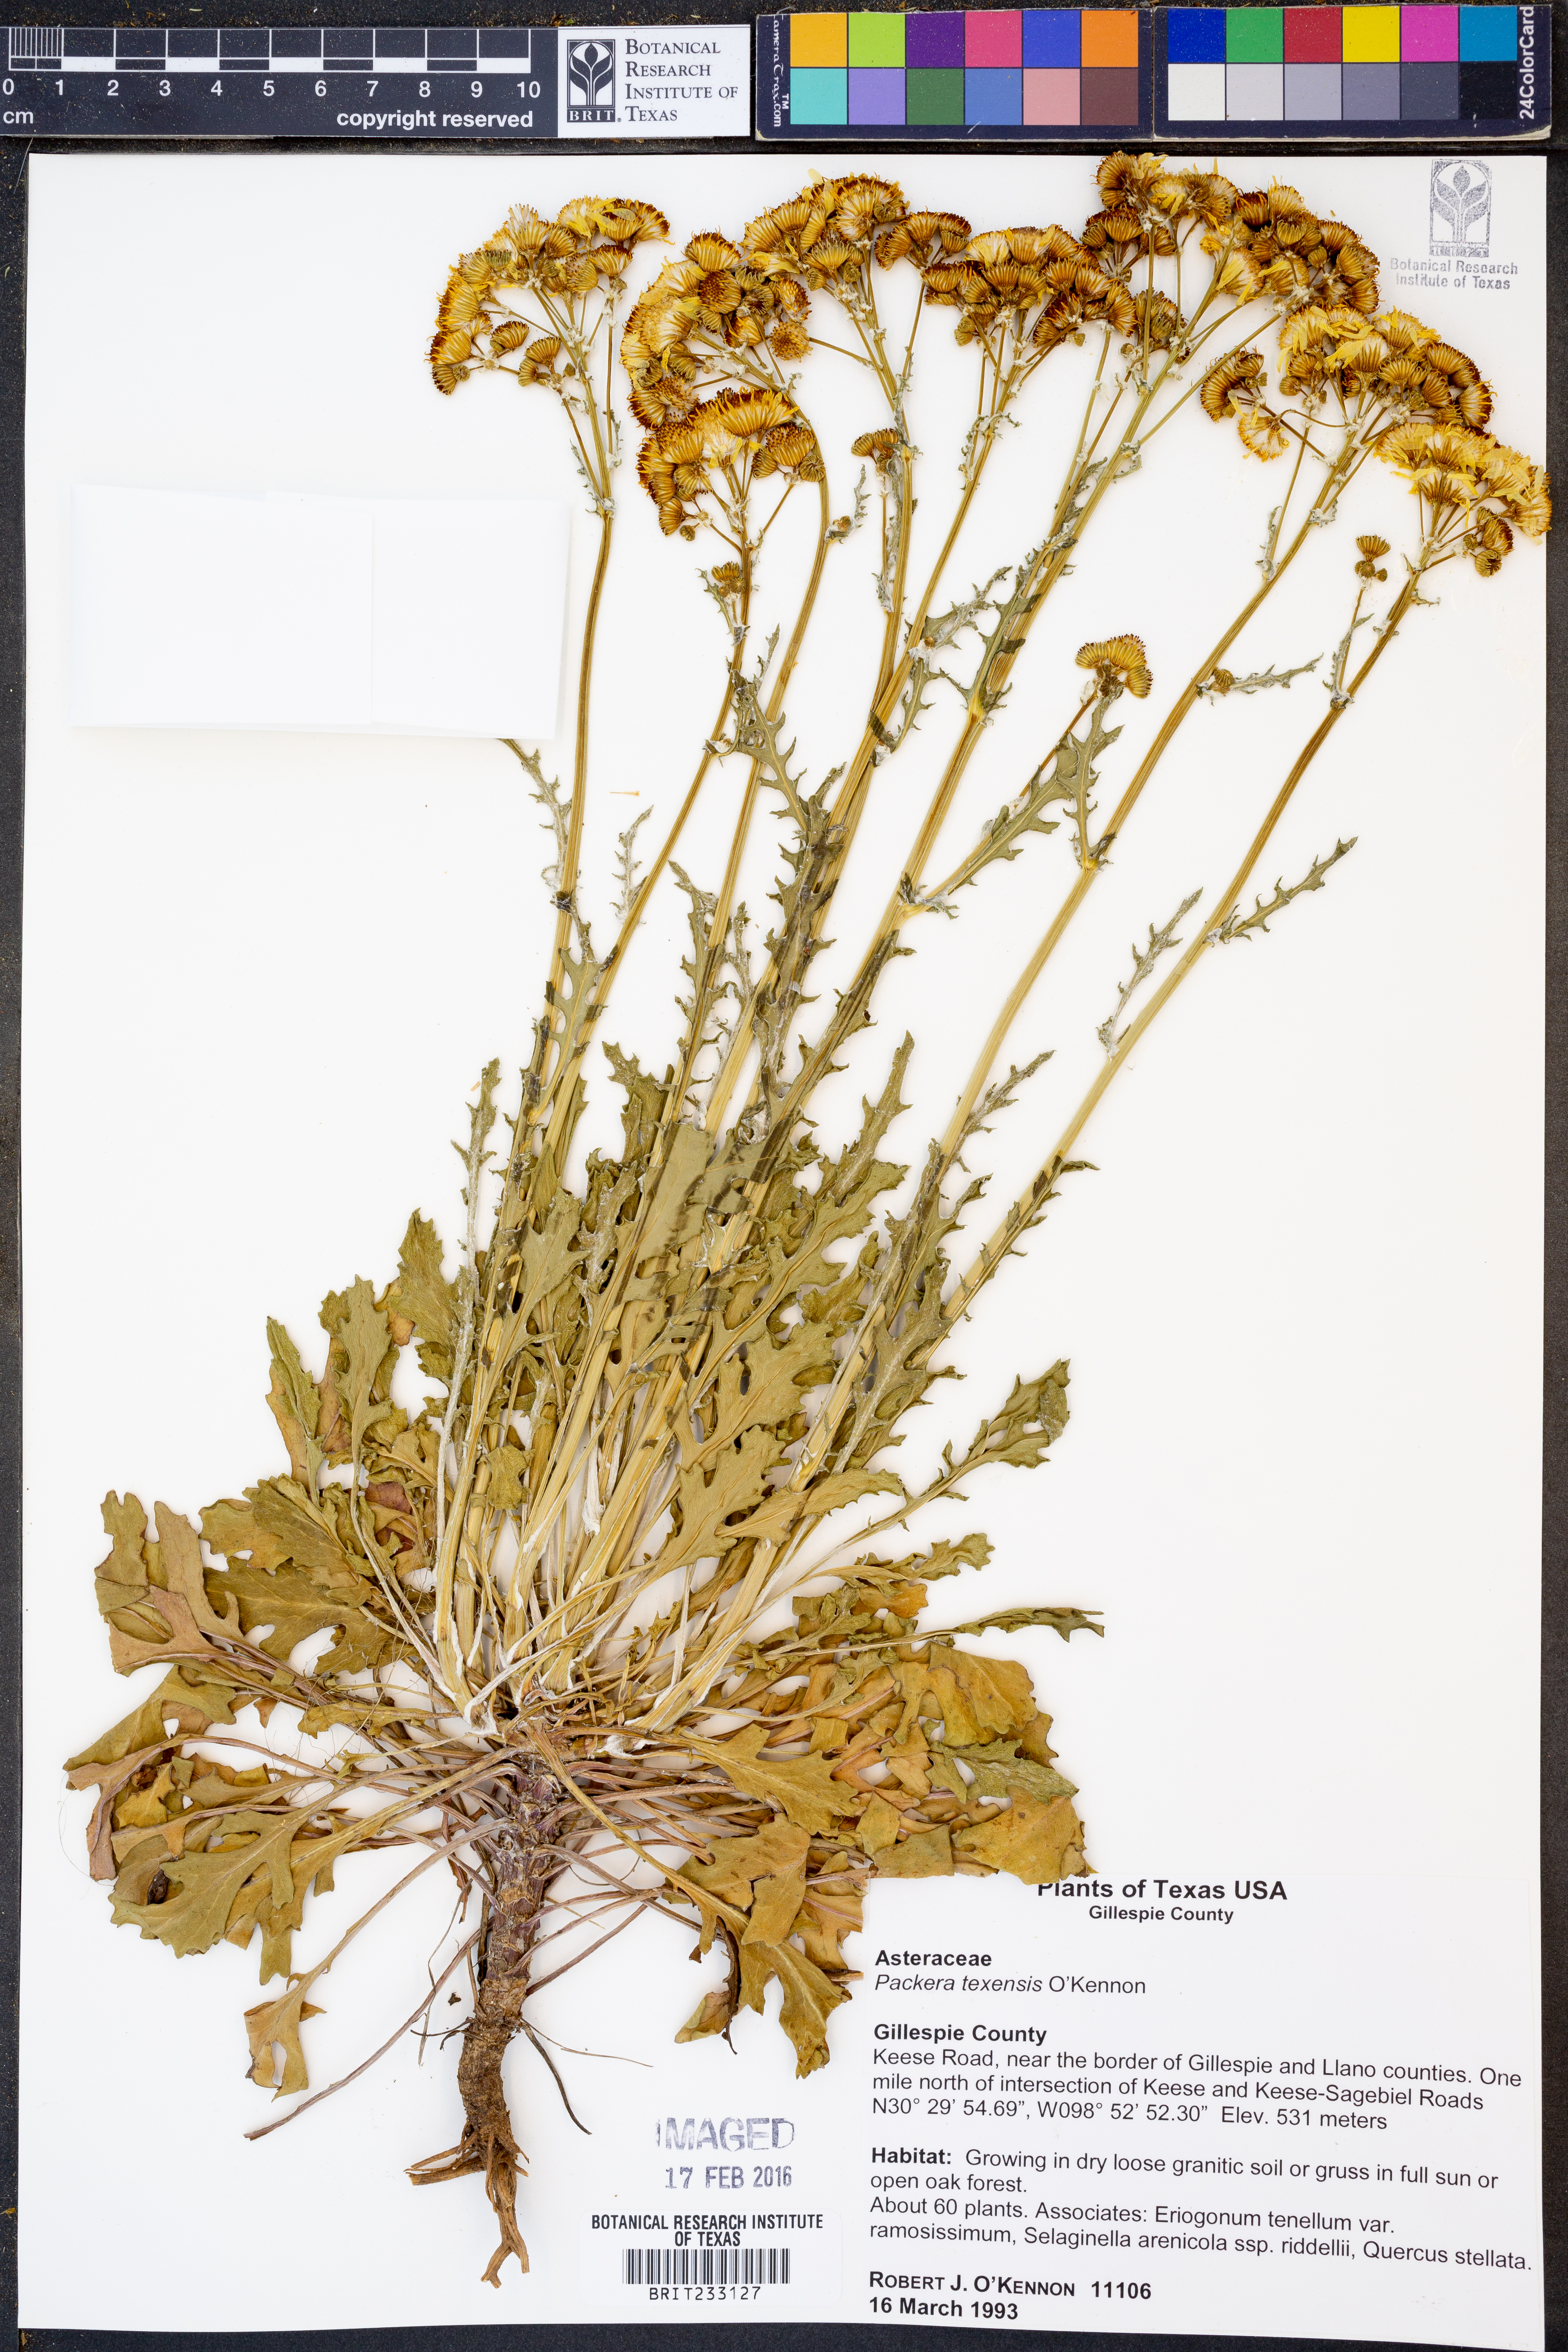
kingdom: Plantae
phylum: Tracheophyta
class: Magnoliopsida
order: Asterales
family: Asteraceae
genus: Packera
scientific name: Packera texensis
